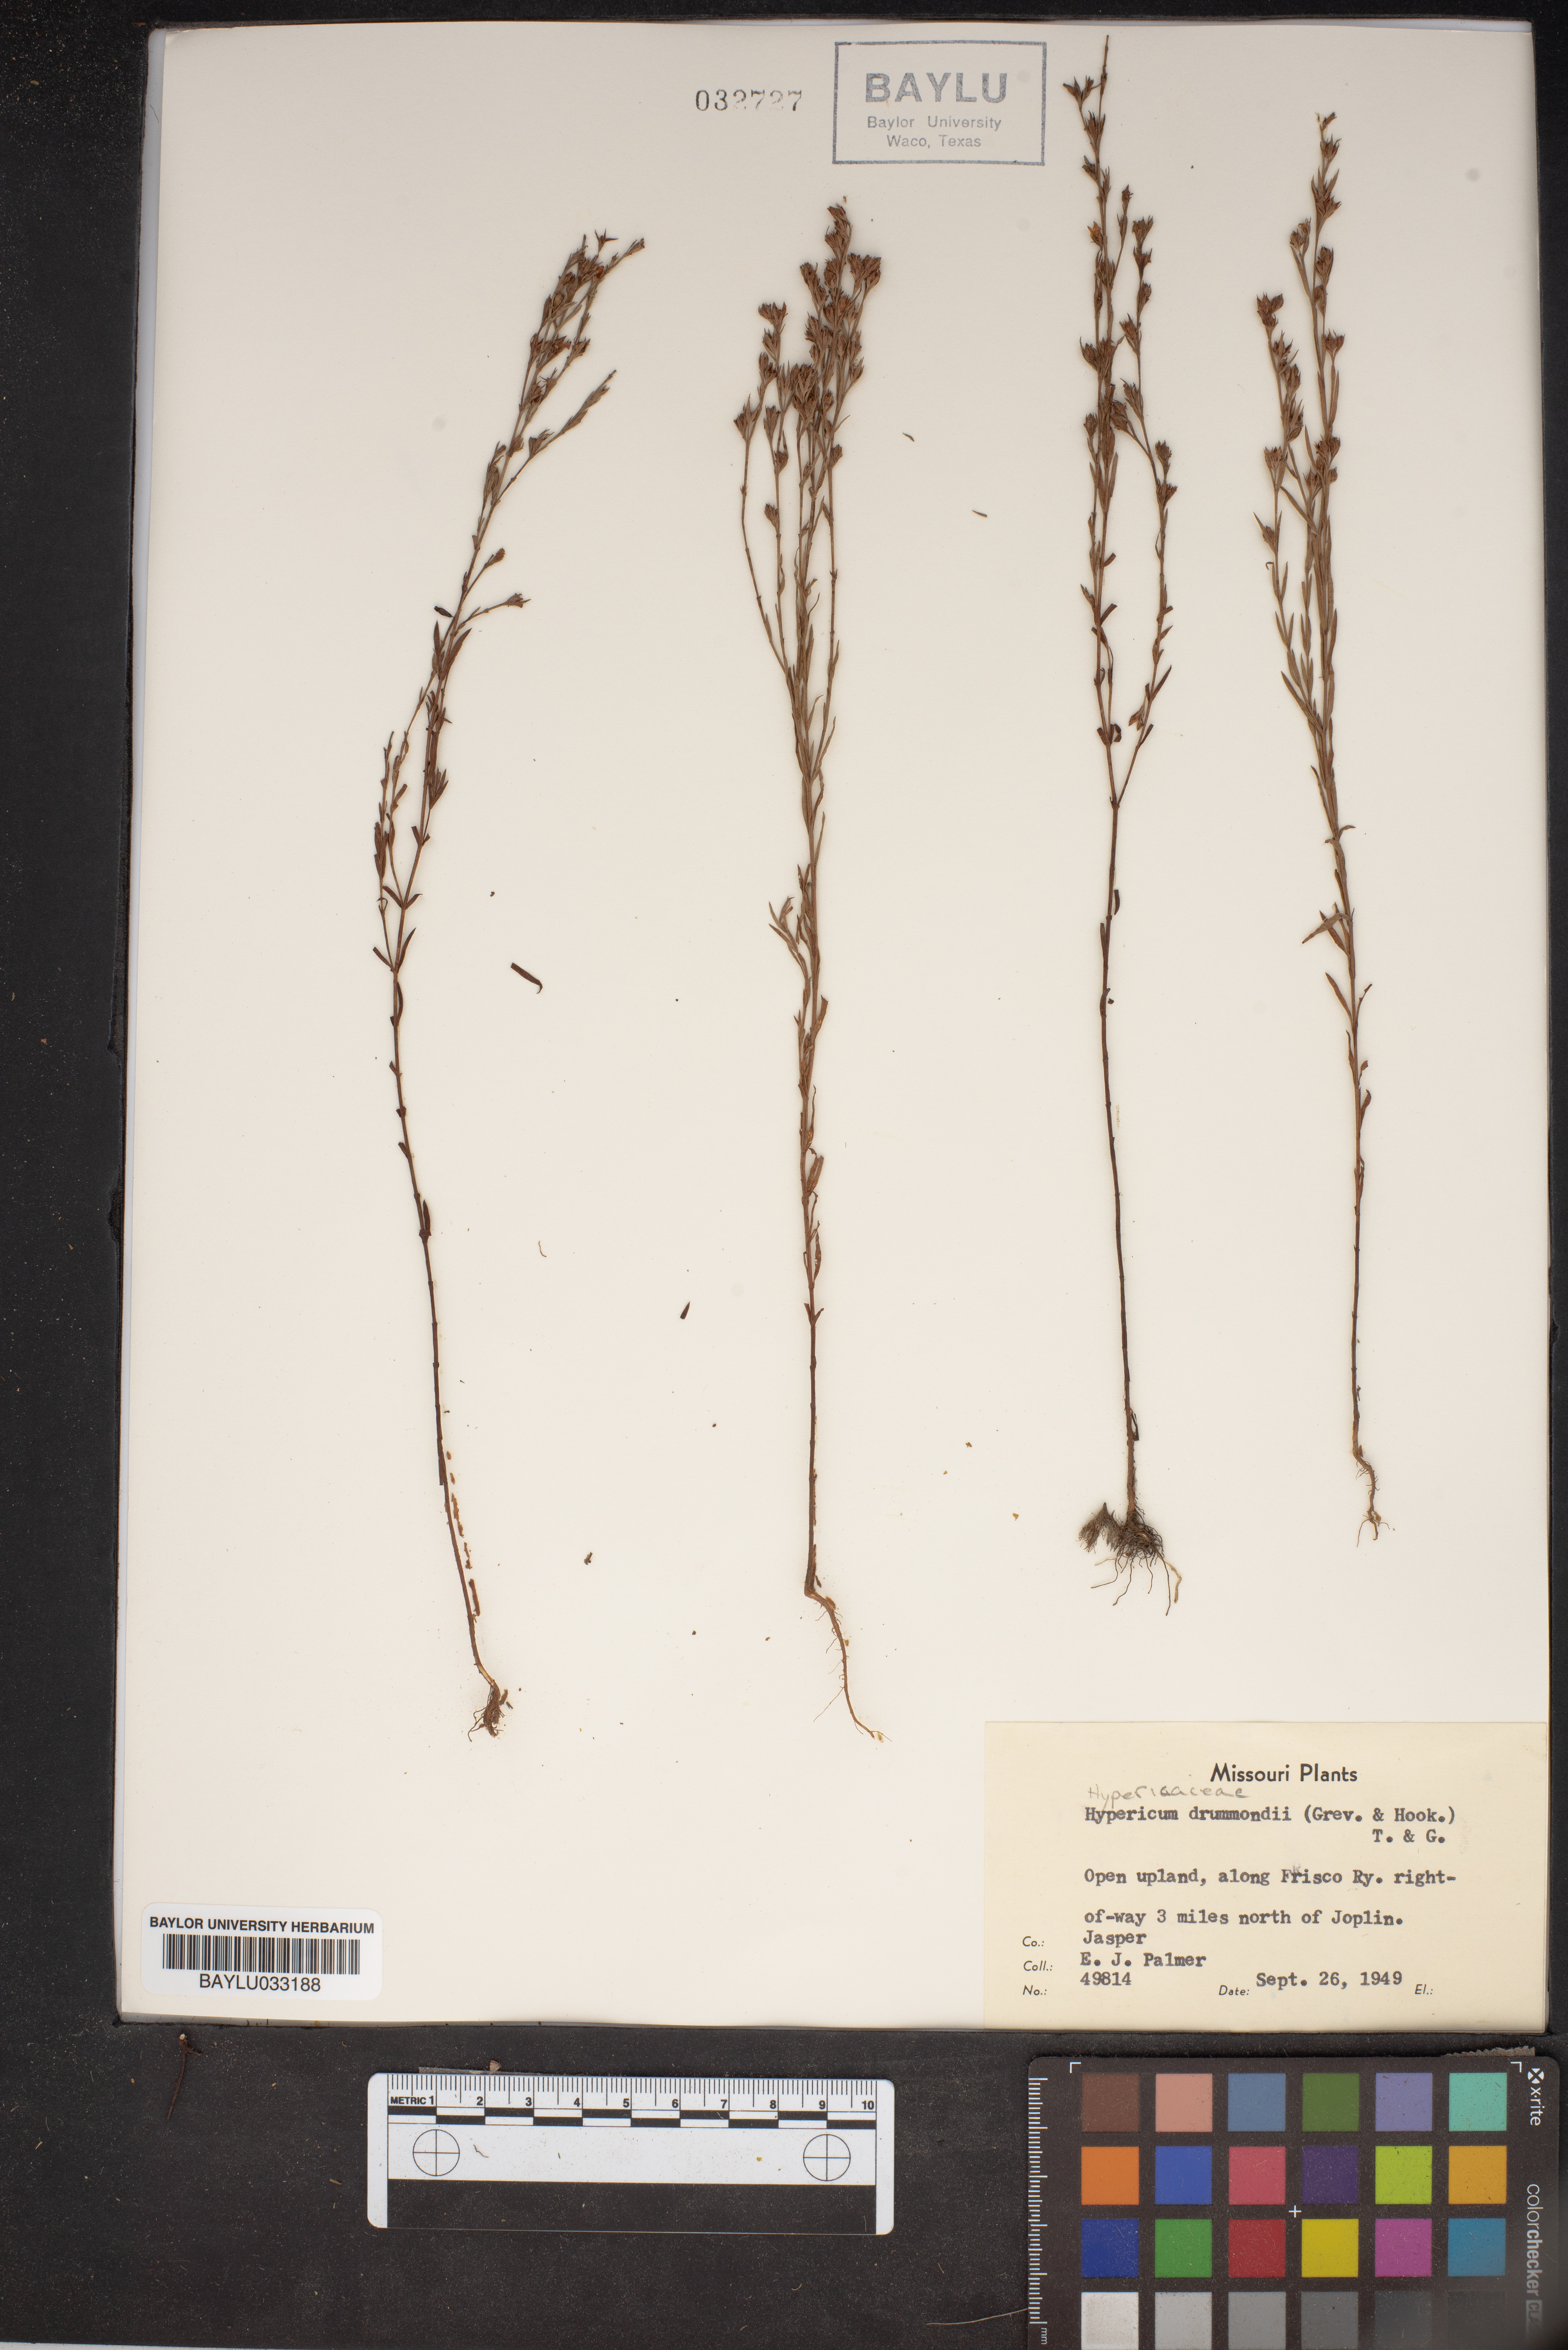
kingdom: Plantae
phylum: Tracheophyta
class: Magnoliopsida
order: Malpighiales
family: Hypericaceae
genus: Hypericum
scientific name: Hypericum drummondii
